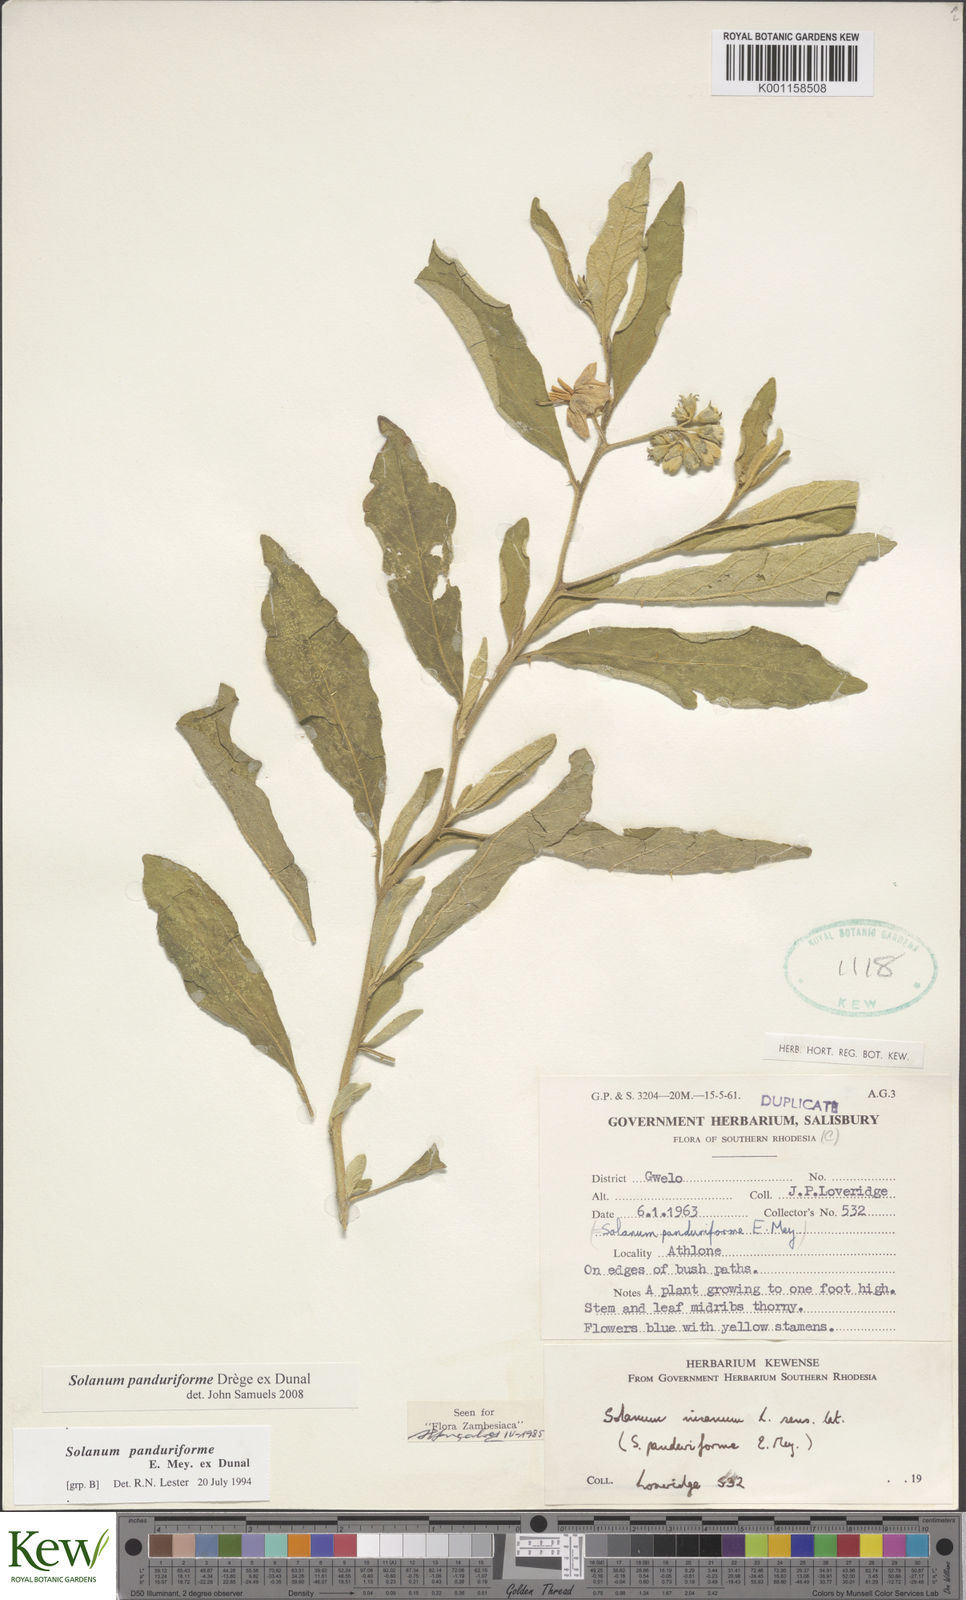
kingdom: Plantae
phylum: Tracheophyta
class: Magnoliopsida
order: Solanales
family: Solanaceae
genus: Solanum
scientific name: Solanum campylacanthum
